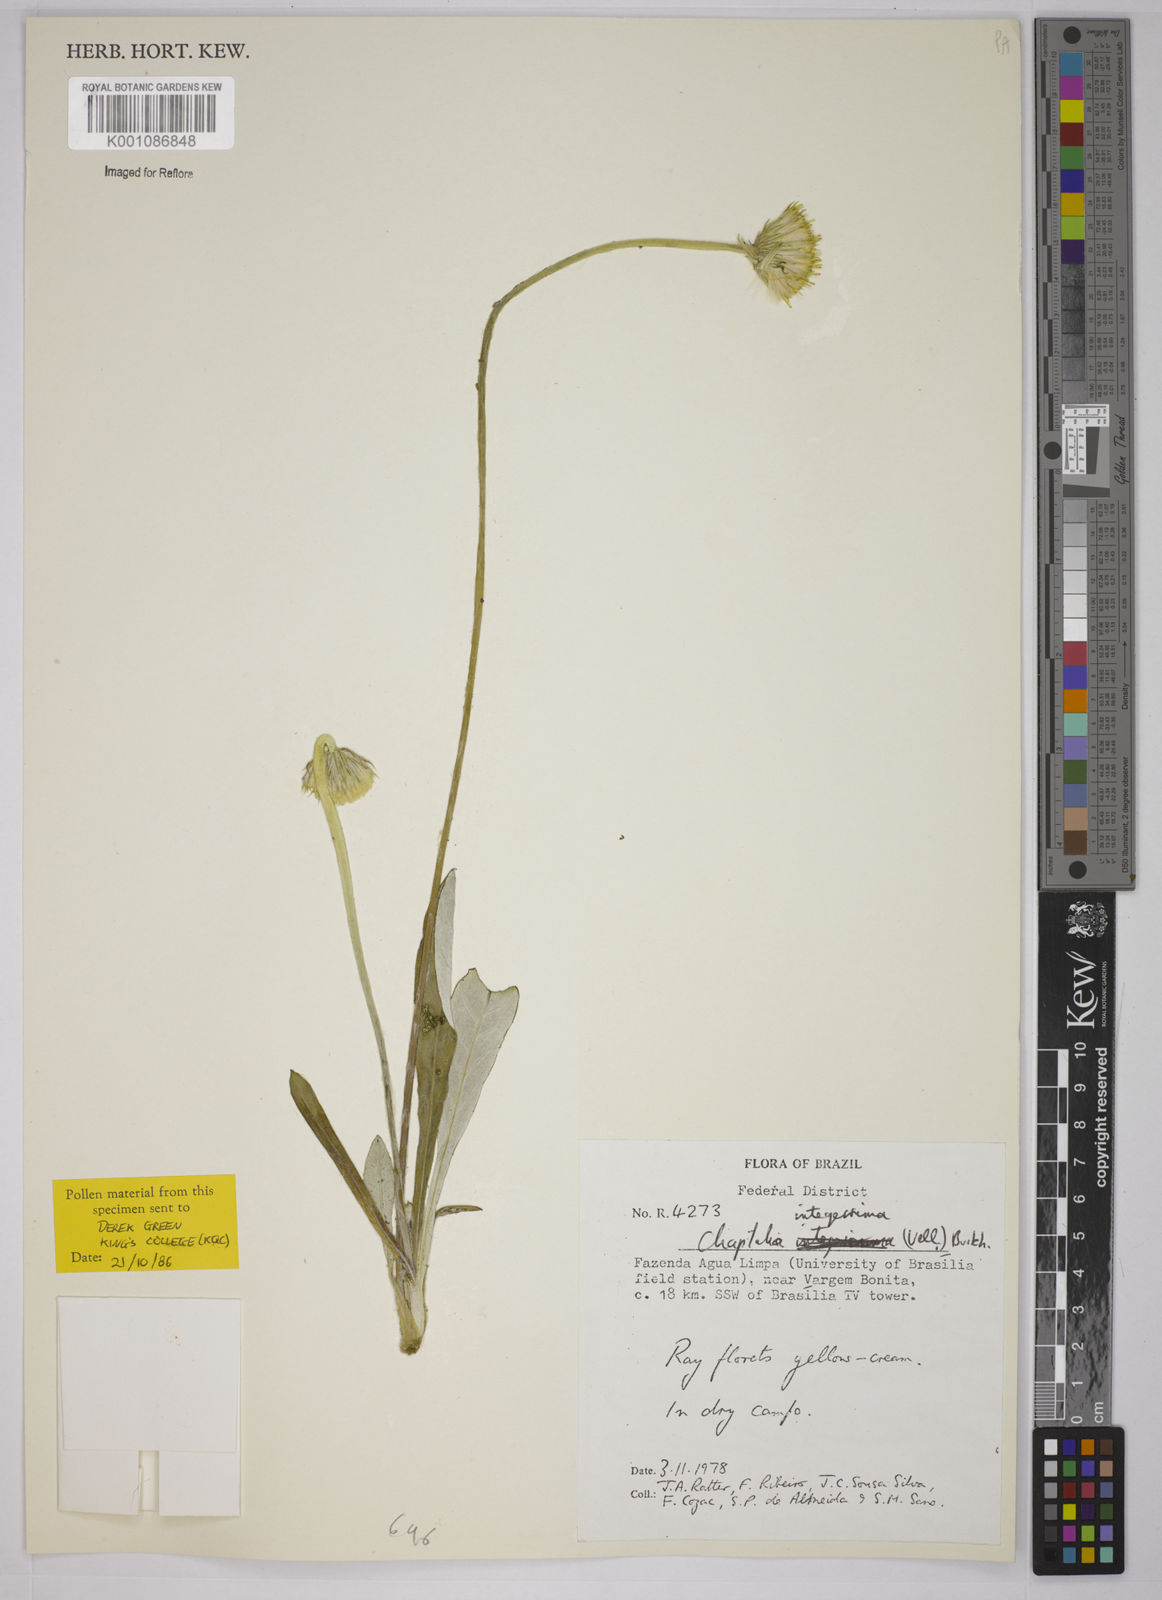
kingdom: Plantae
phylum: Tracheophyta
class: Magnoliopsida
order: Asterales
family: Asteraceae
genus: Chaptalia
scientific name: Chaptalia integerrima
